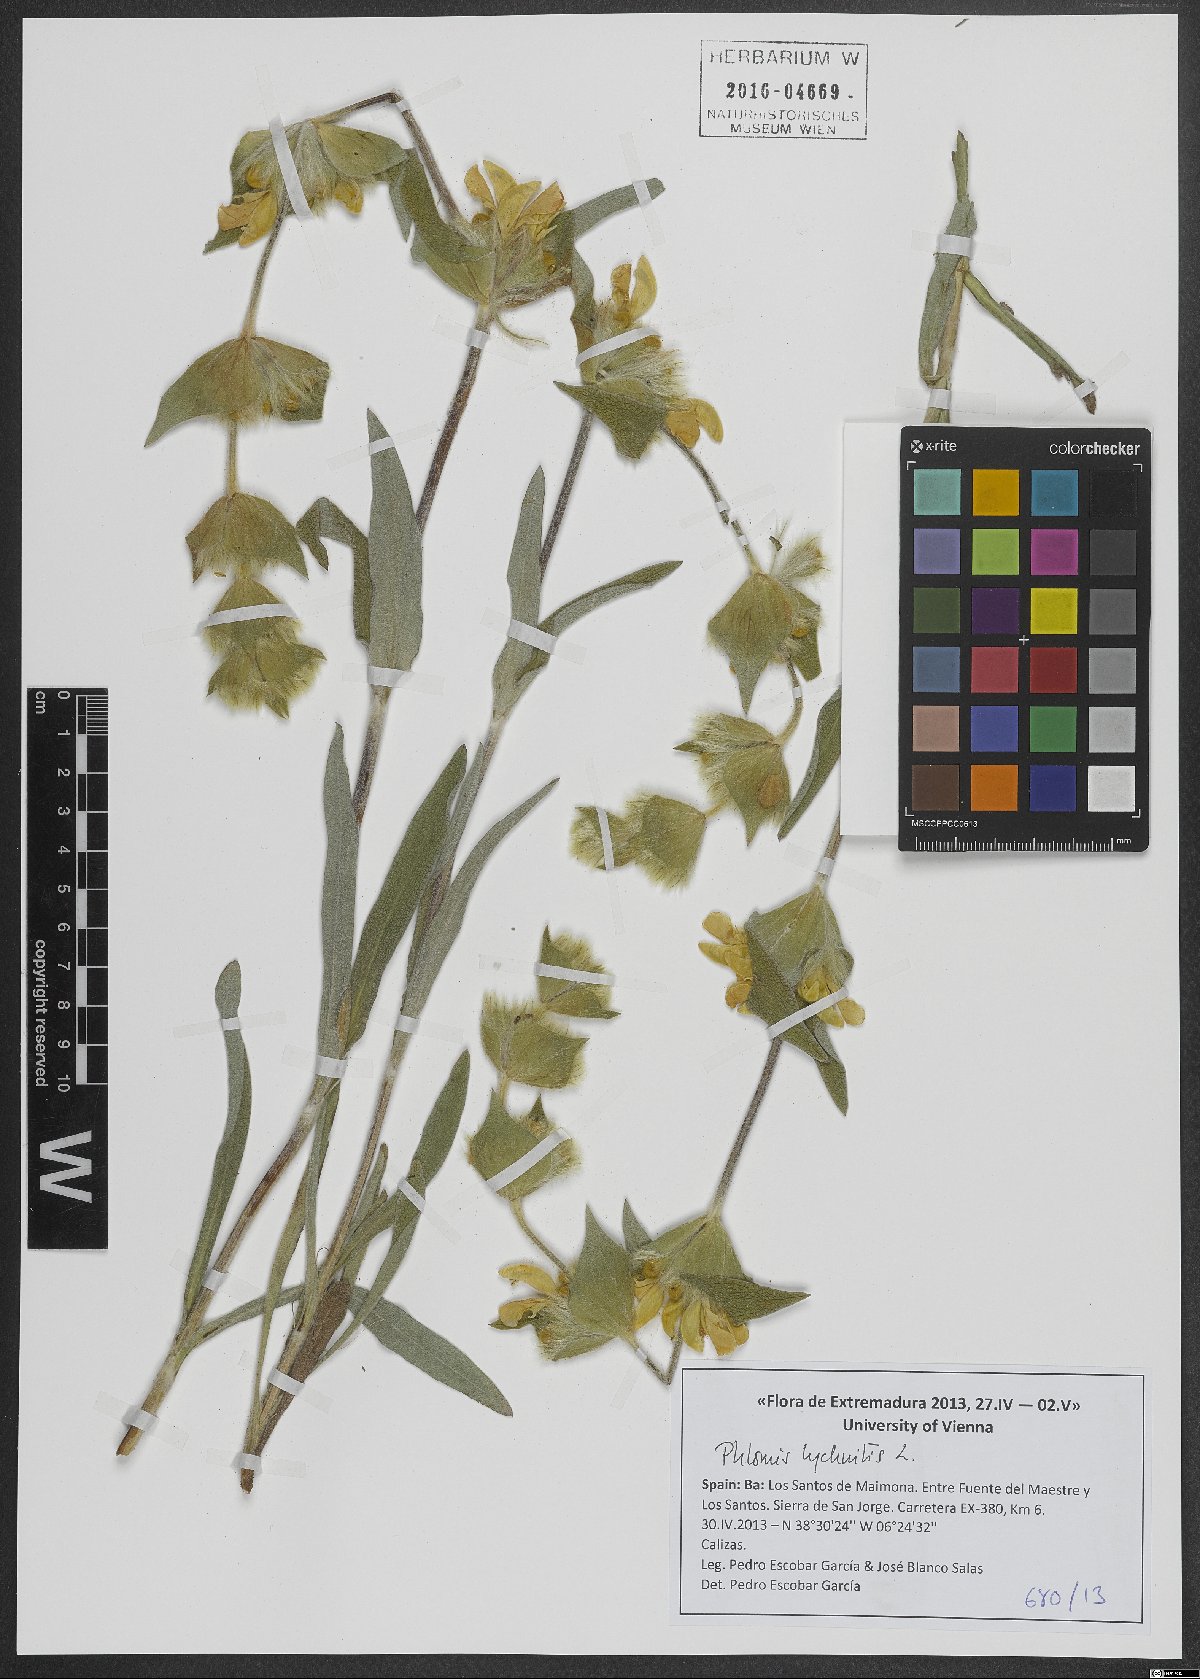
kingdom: Plantae
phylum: Tracheophyta
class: Magnoliopsida
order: Lamiales
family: Lamiaceae
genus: Phlomis
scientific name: Phlomis lychnitis
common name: Lampwickplant
